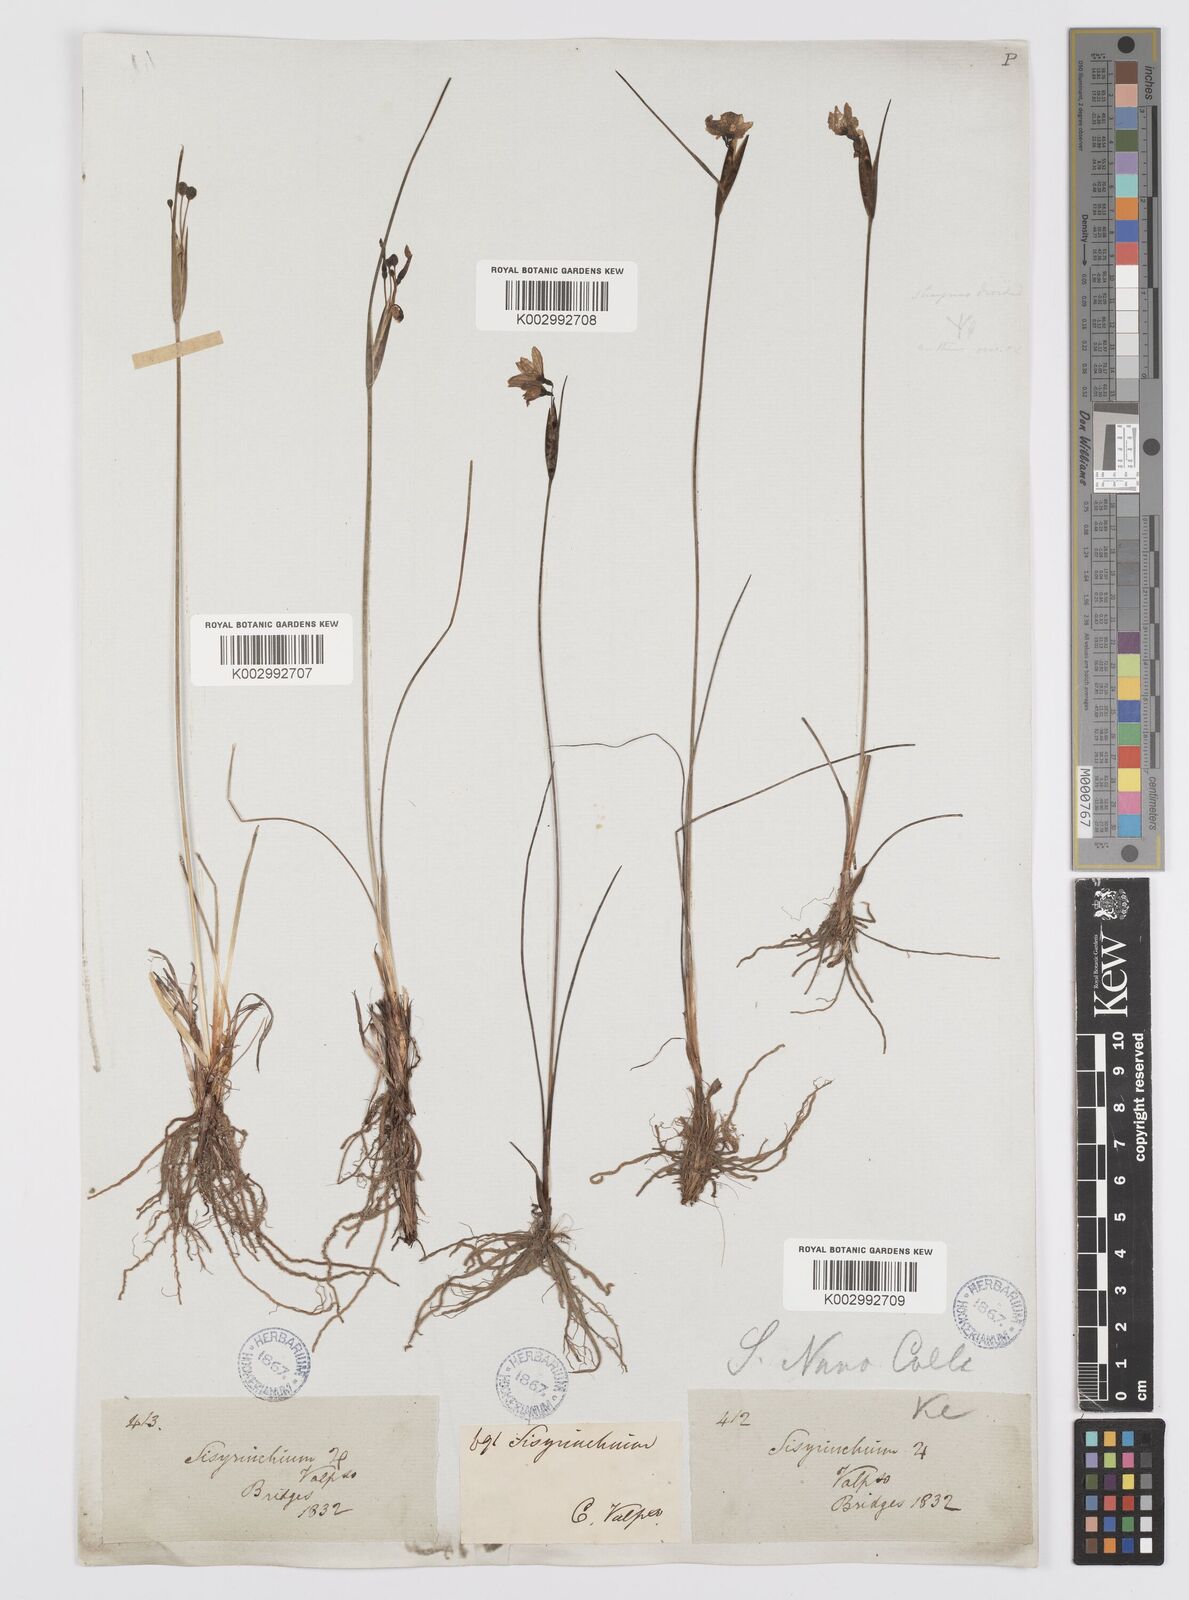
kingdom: Plantae
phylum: Tracheophyta
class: Liliopsida
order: Asparagales
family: Iridaceae
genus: Olsynium
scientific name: Olsynium scirpoideum
